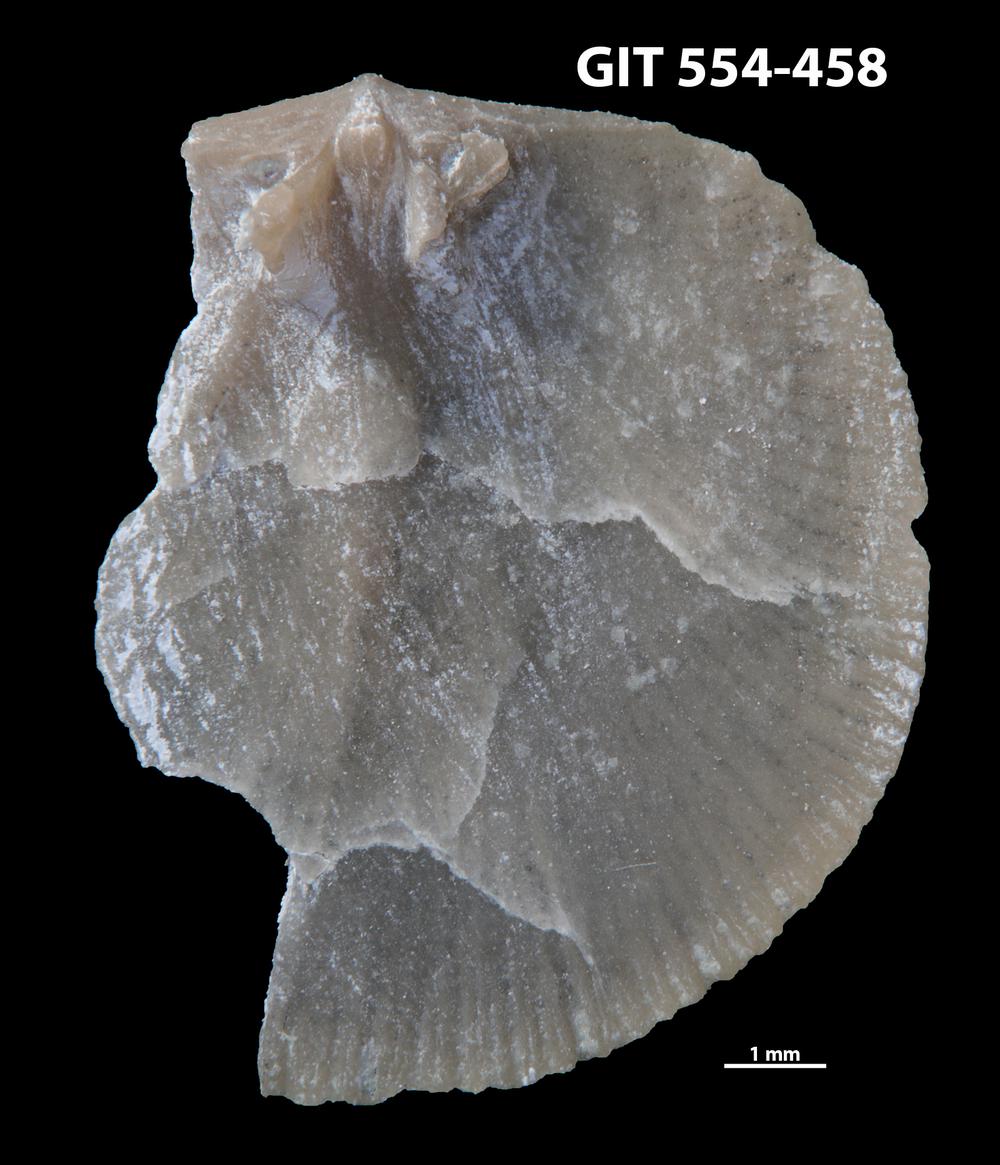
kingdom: Animalia
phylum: Brachiopoda
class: Rhynchonellata
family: Dalmanellidae
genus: Onniella
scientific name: Onniella trigona
